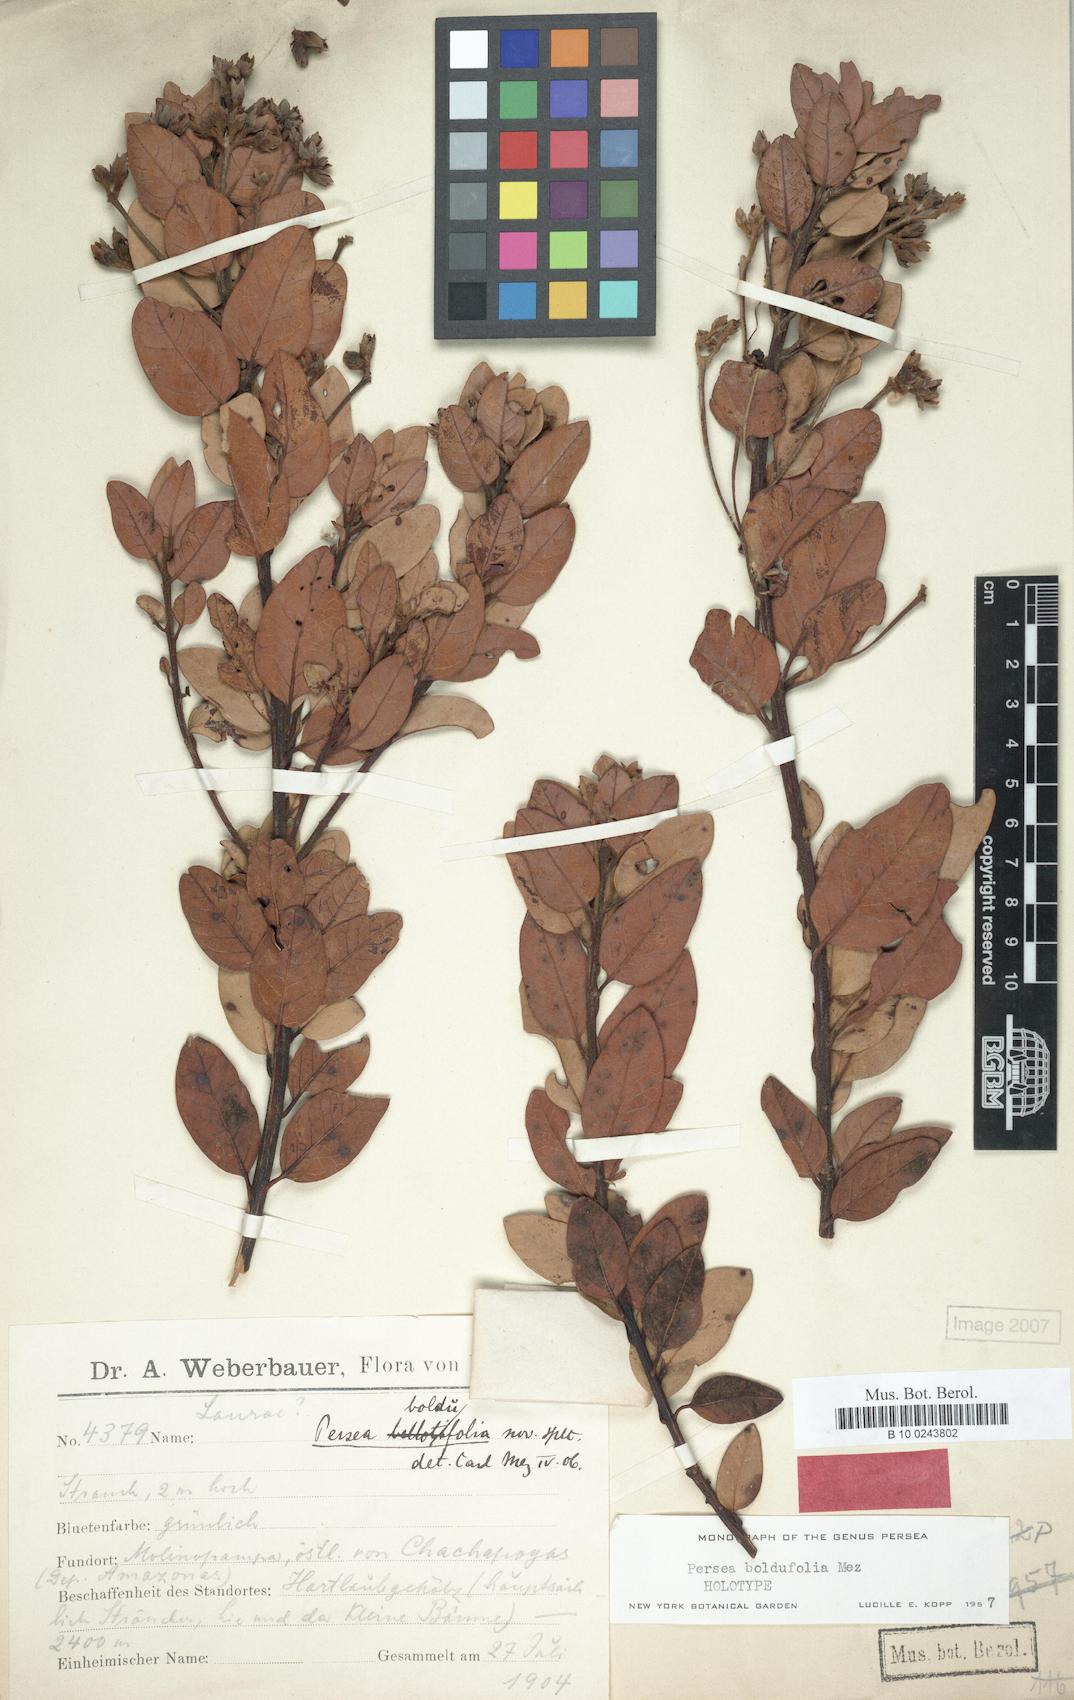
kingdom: Plantae
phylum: Tracheophyta
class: Magnoliopsida
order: Laurales
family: Lauraceae
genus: Persea
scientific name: Persea boldufolia
